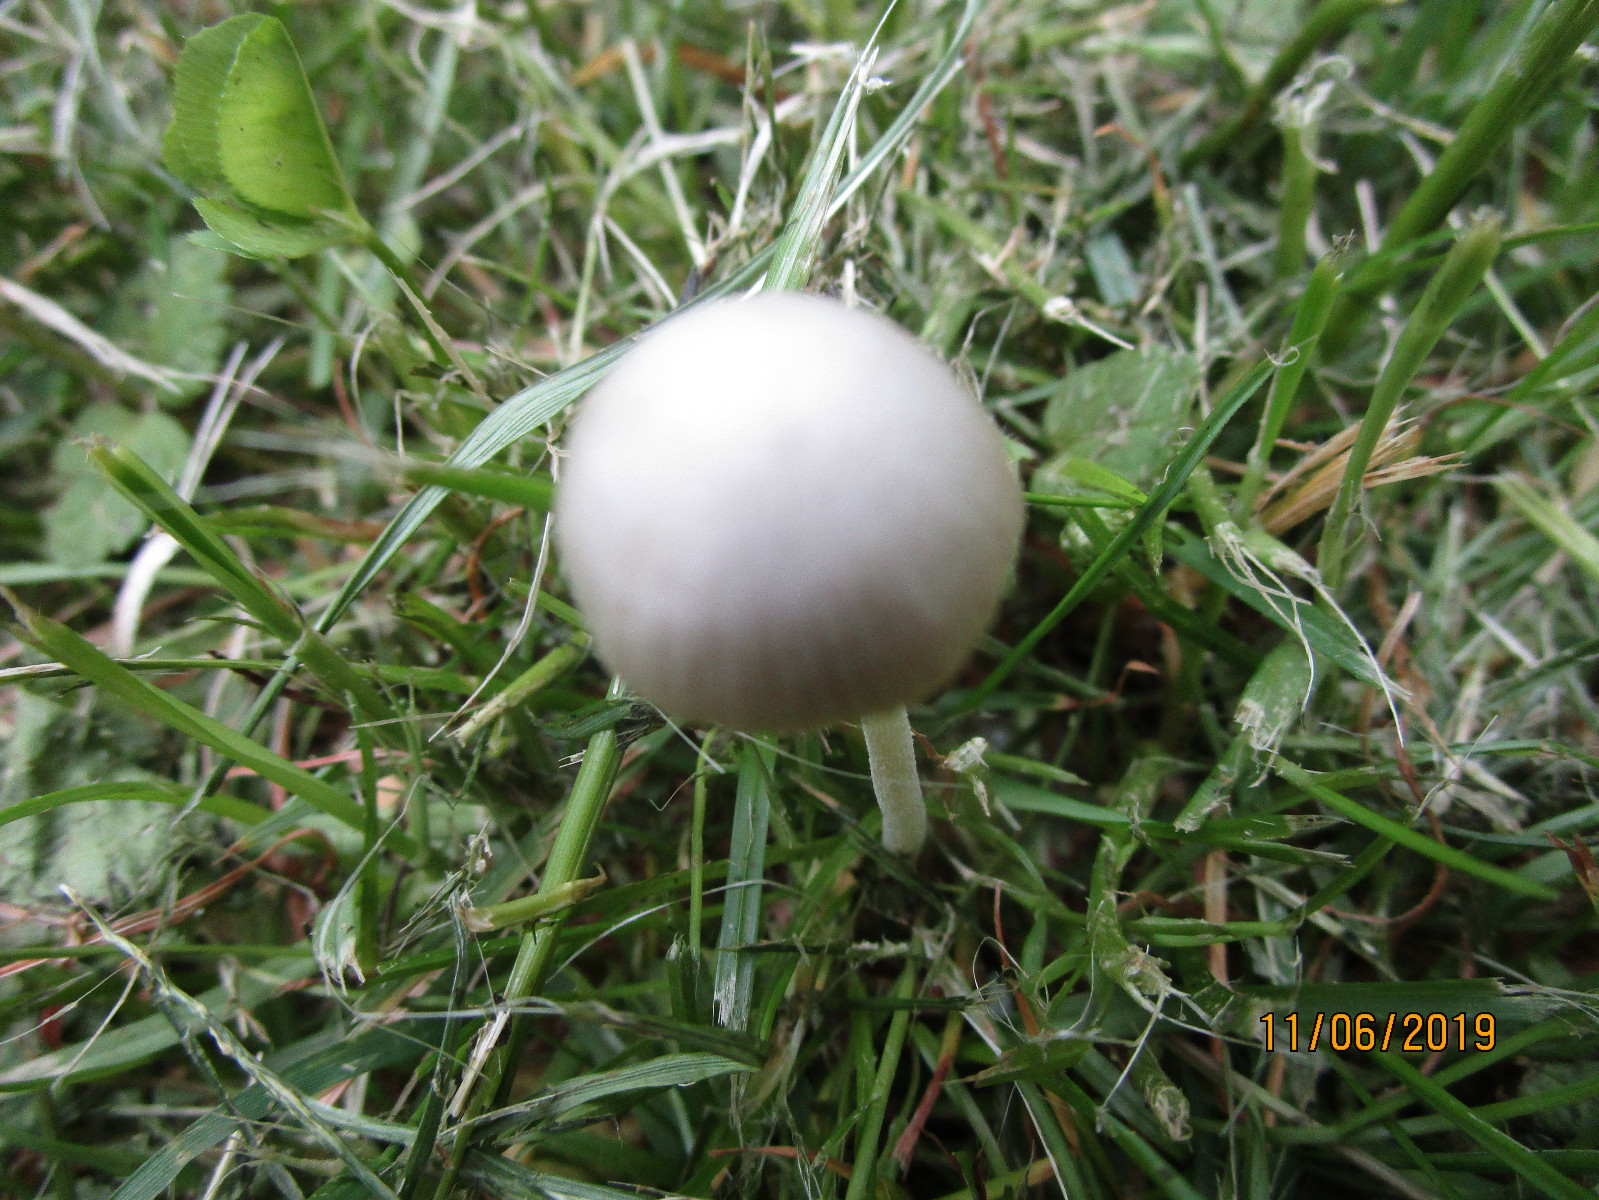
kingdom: Fungi
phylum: Basidiomycota
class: Agaricomycetes
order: Agaricales
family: Bolbitiaceae
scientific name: Bolbitiaceae
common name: gulhatfamilien
